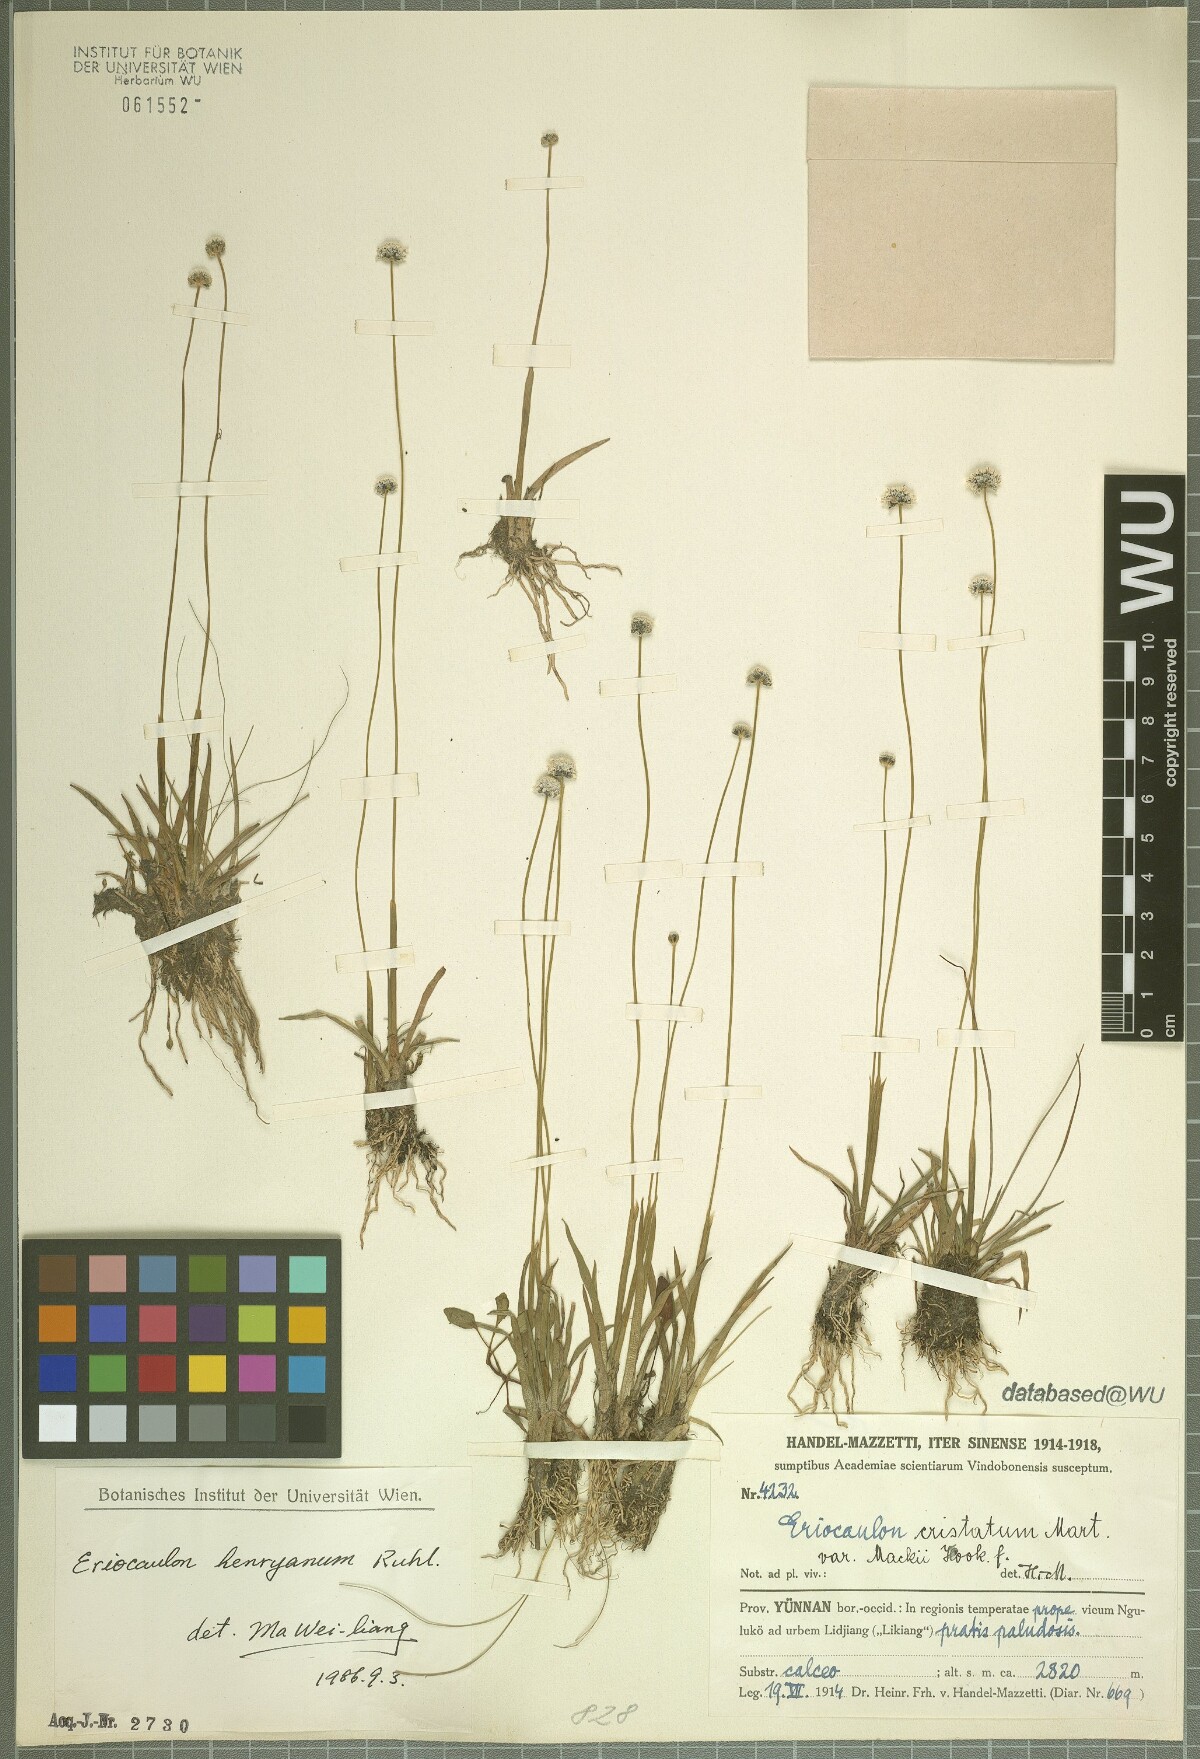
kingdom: Plantae
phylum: Tracheophyta
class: Liliopsida
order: Poales
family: Eriocaulaceae
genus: Eriocaulon
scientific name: Eriocaulon henryanum
